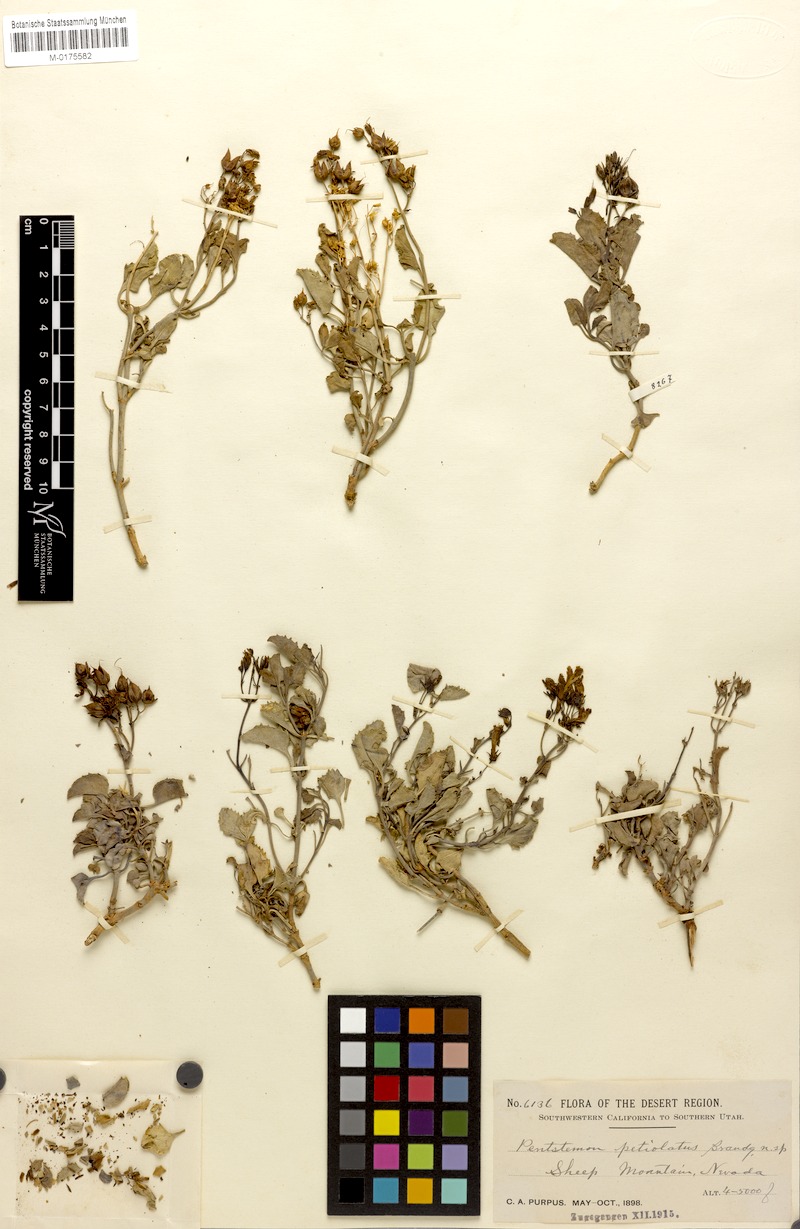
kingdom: Plantae
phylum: Tracheophyta
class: Magnoliopsida
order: Lamiales
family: Plantaginaceae
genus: Penstemon
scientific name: Penstemon petiolatus
